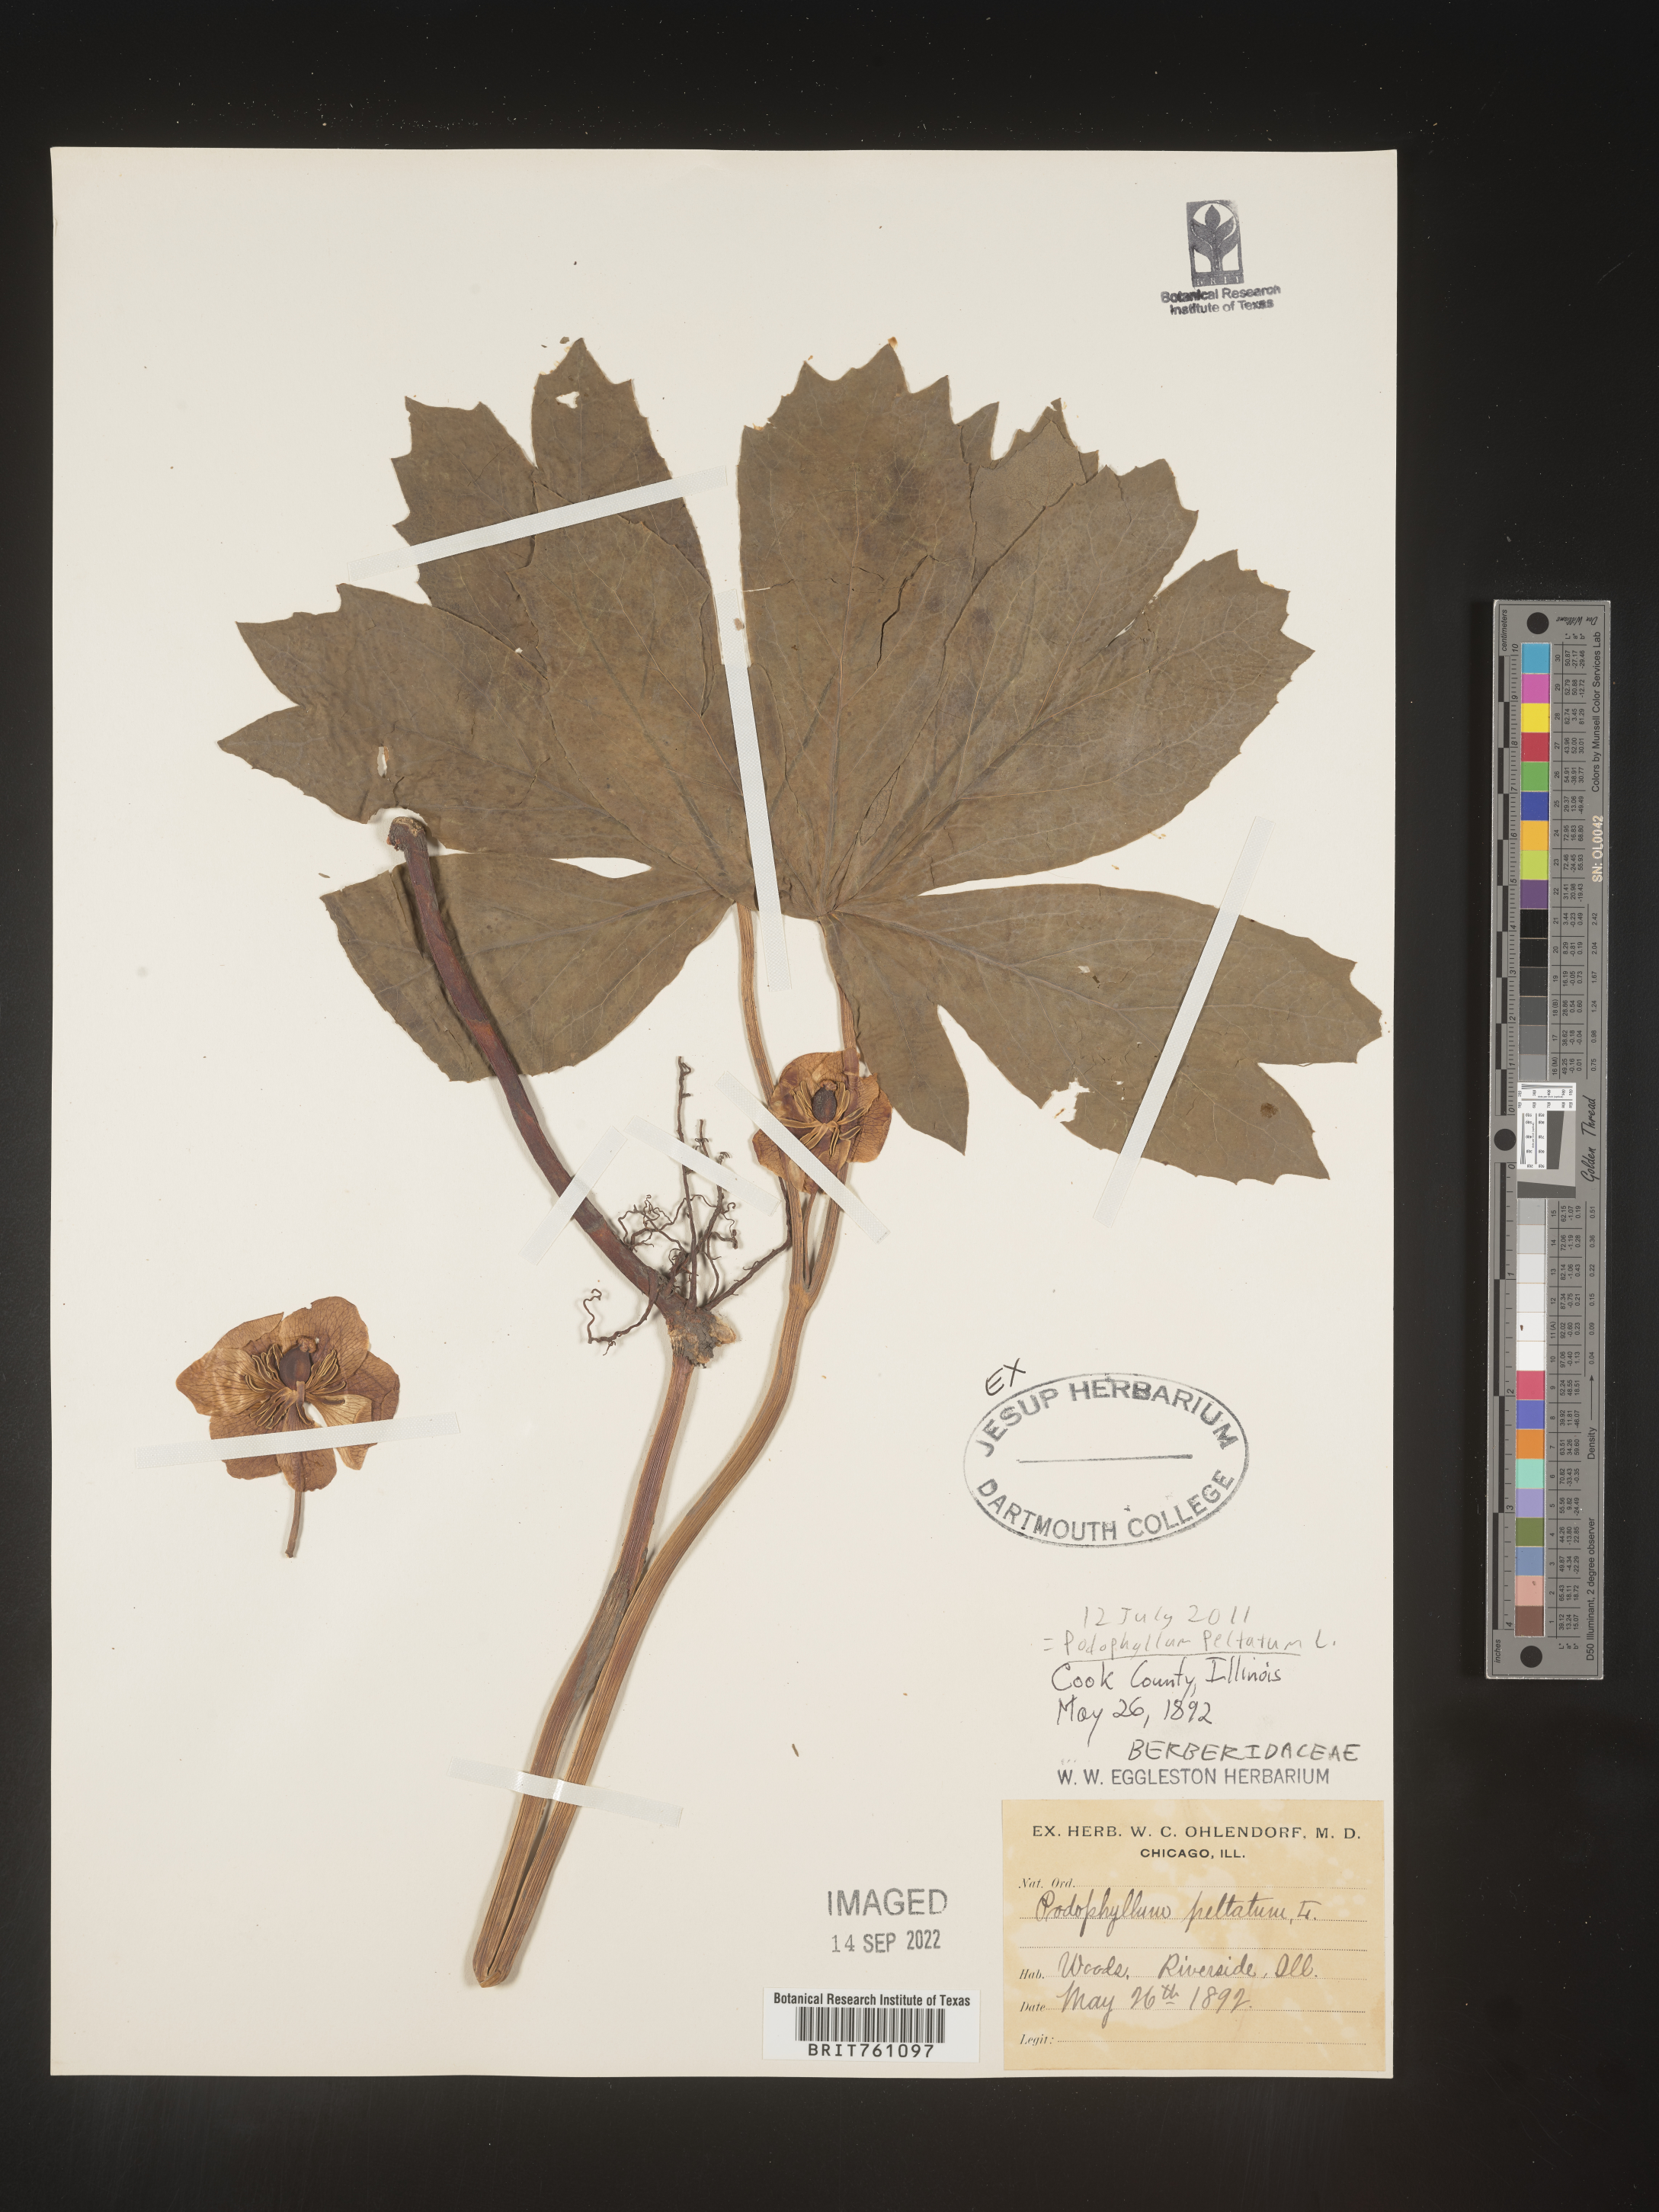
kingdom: Plantae
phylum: Tracheophyta
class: Magnoliopsida
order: Ranunculales
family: Berberidaceae
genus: Podophyllum
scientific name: Podophyllum peltatum
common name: Wild mandrake
